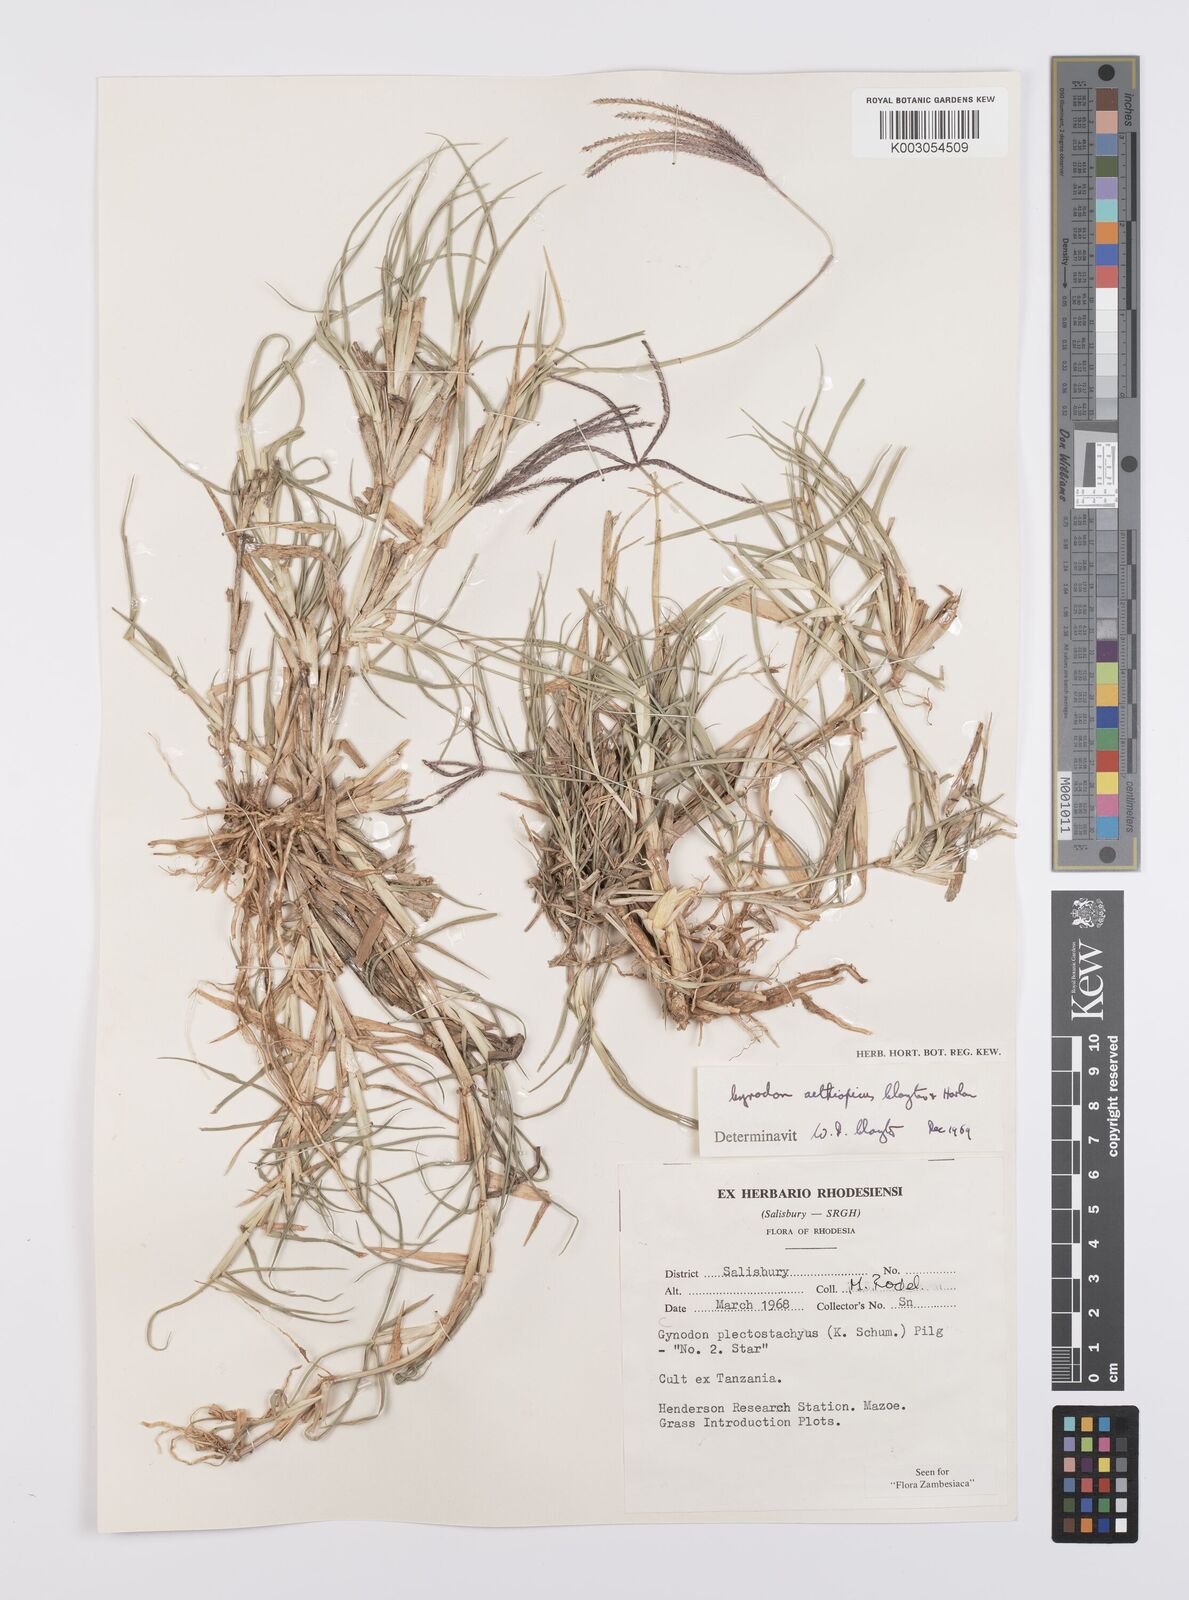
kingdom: Plantae
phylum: Tracheophyta
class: Liliopsida
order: Poales
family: Poaceae
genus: Cynodon
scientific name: Cynodon aethiopicus
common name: Ethiopian dogstooth grass
